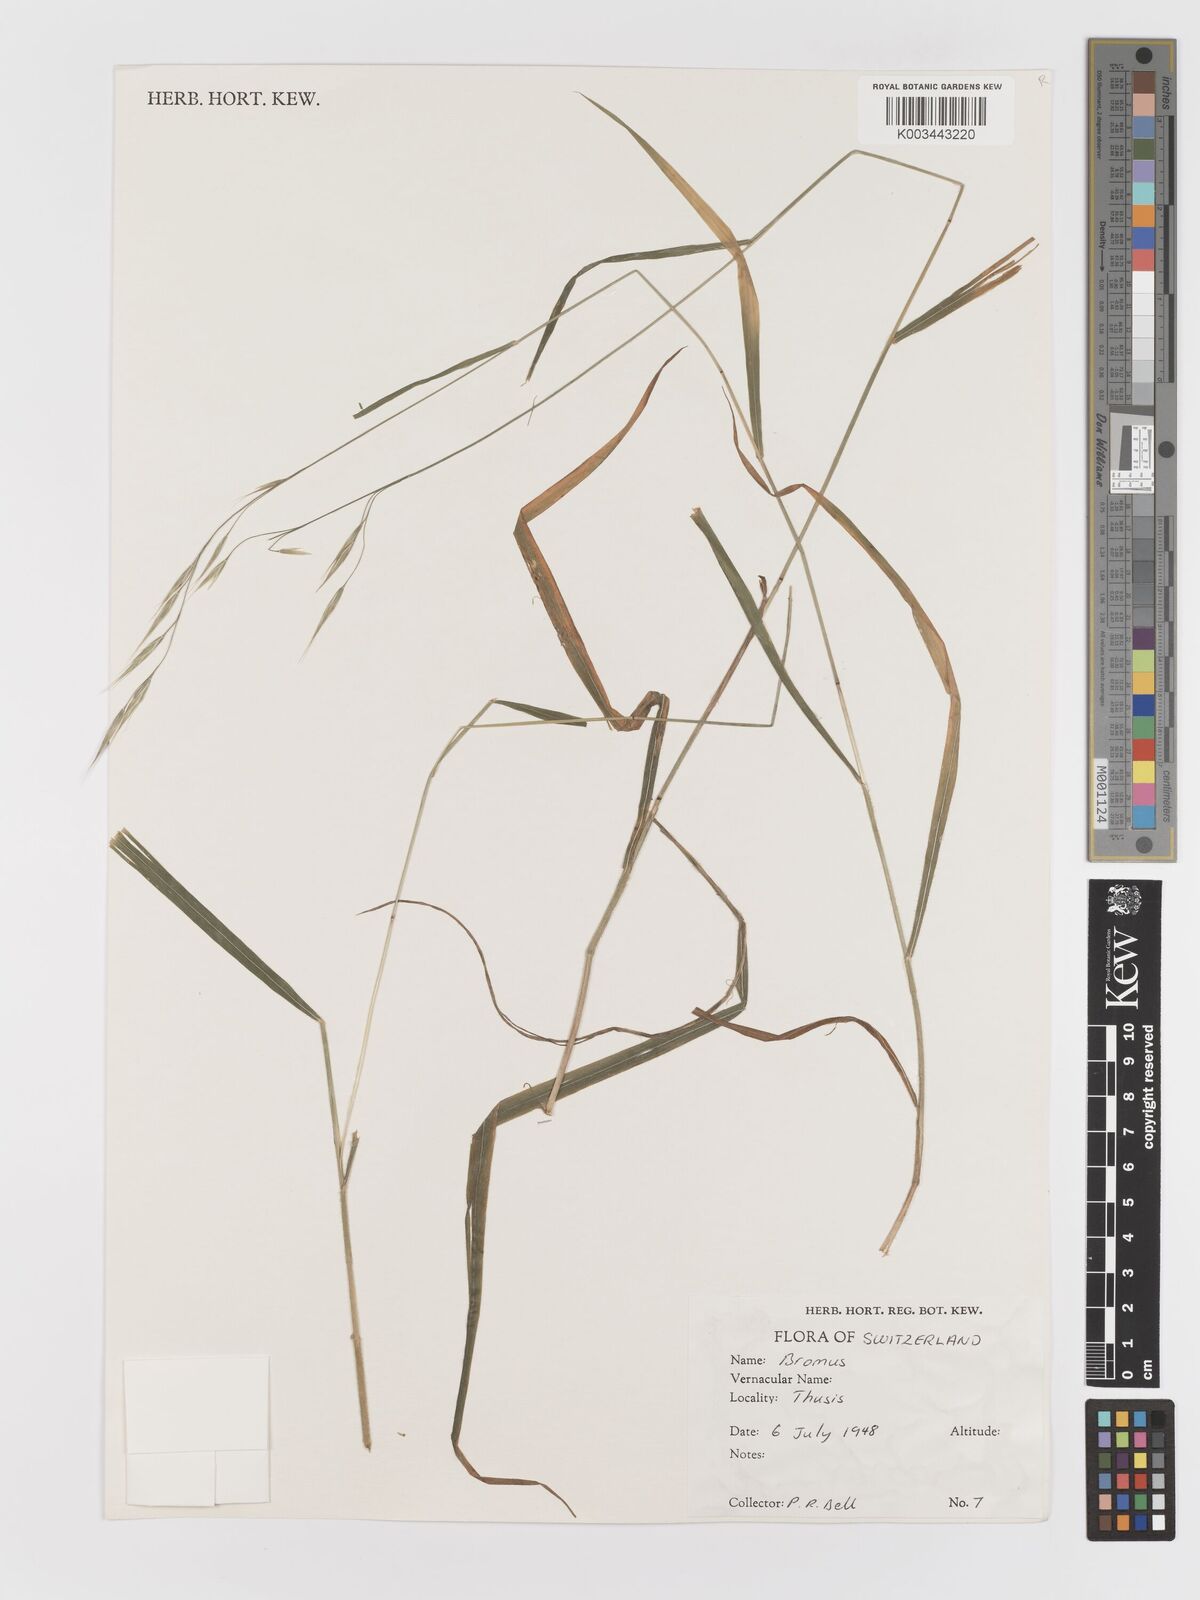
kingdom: Plantae
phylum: Tracheophyta
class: Liliopsida
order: Poales
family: Poaceae
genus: Bromus
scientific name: Bromus
